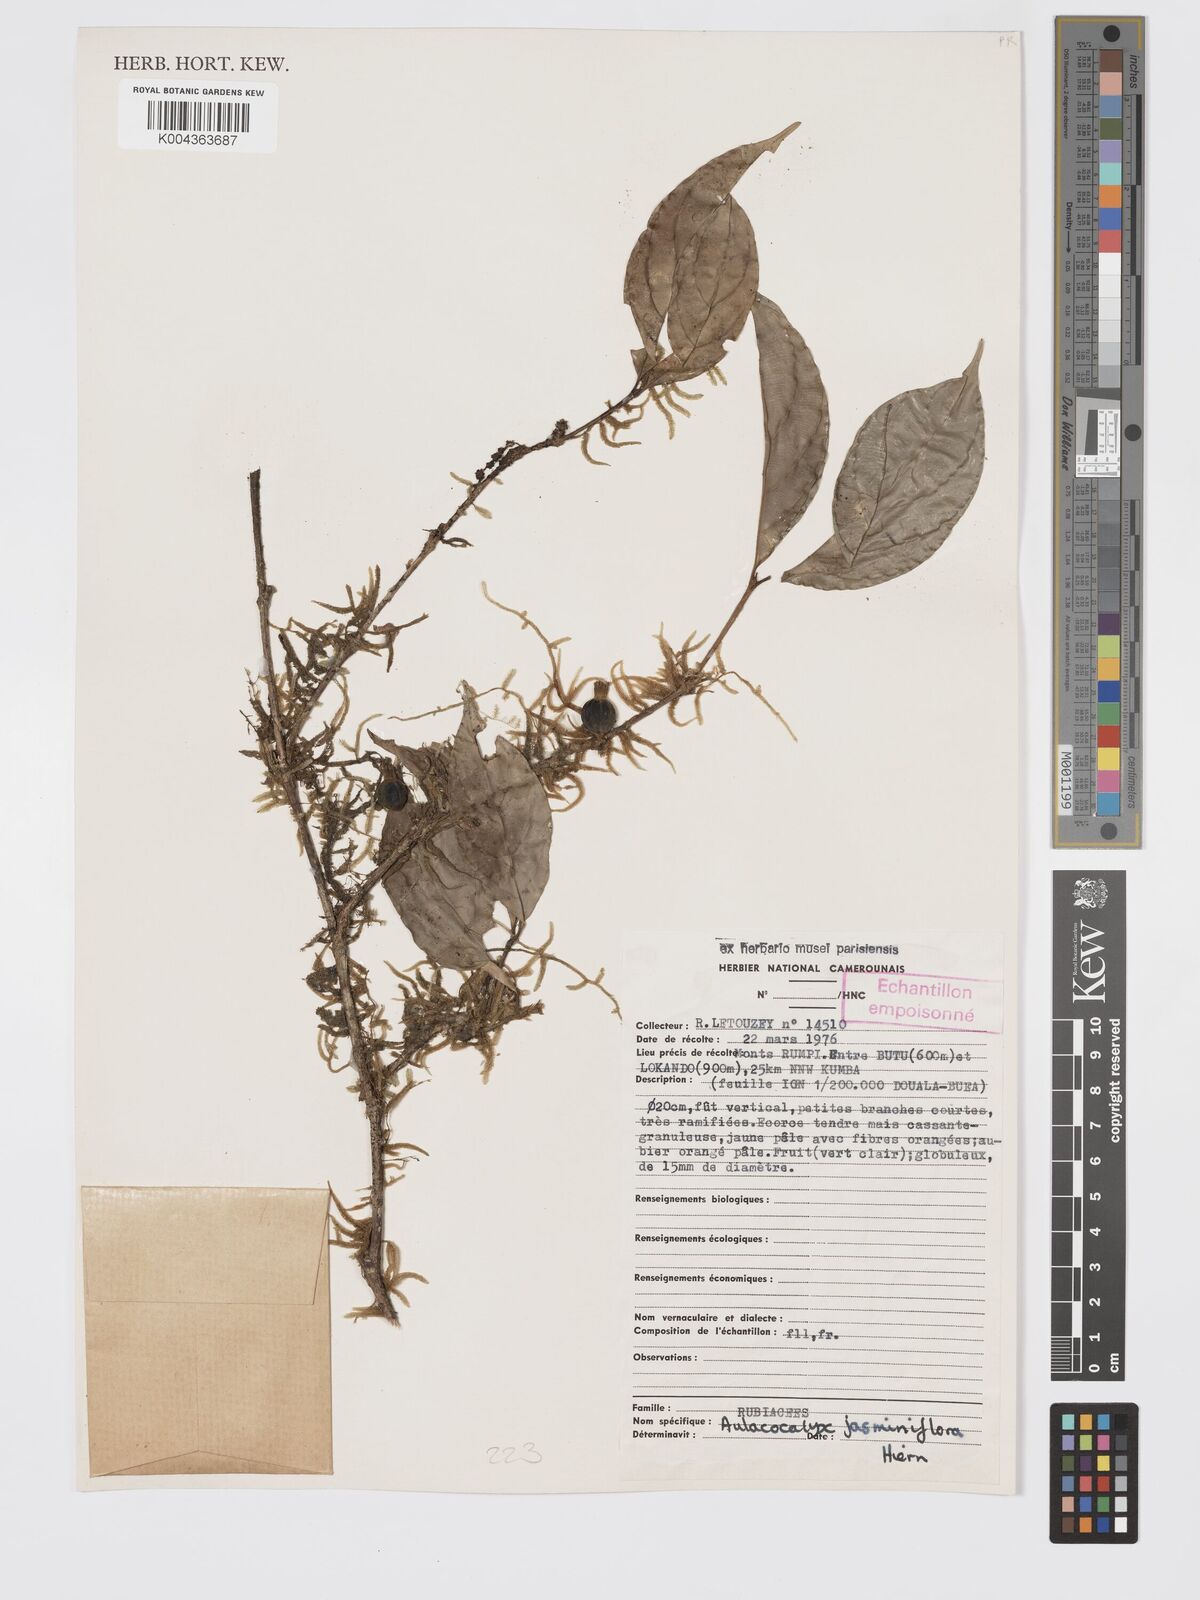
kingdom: Plantae
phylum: Tracheophyta
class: Magnoliopsida
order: Gentianales
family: Rubiaceae
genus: Aulacocalyx
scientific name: Aulacocalyx jasminiflora
